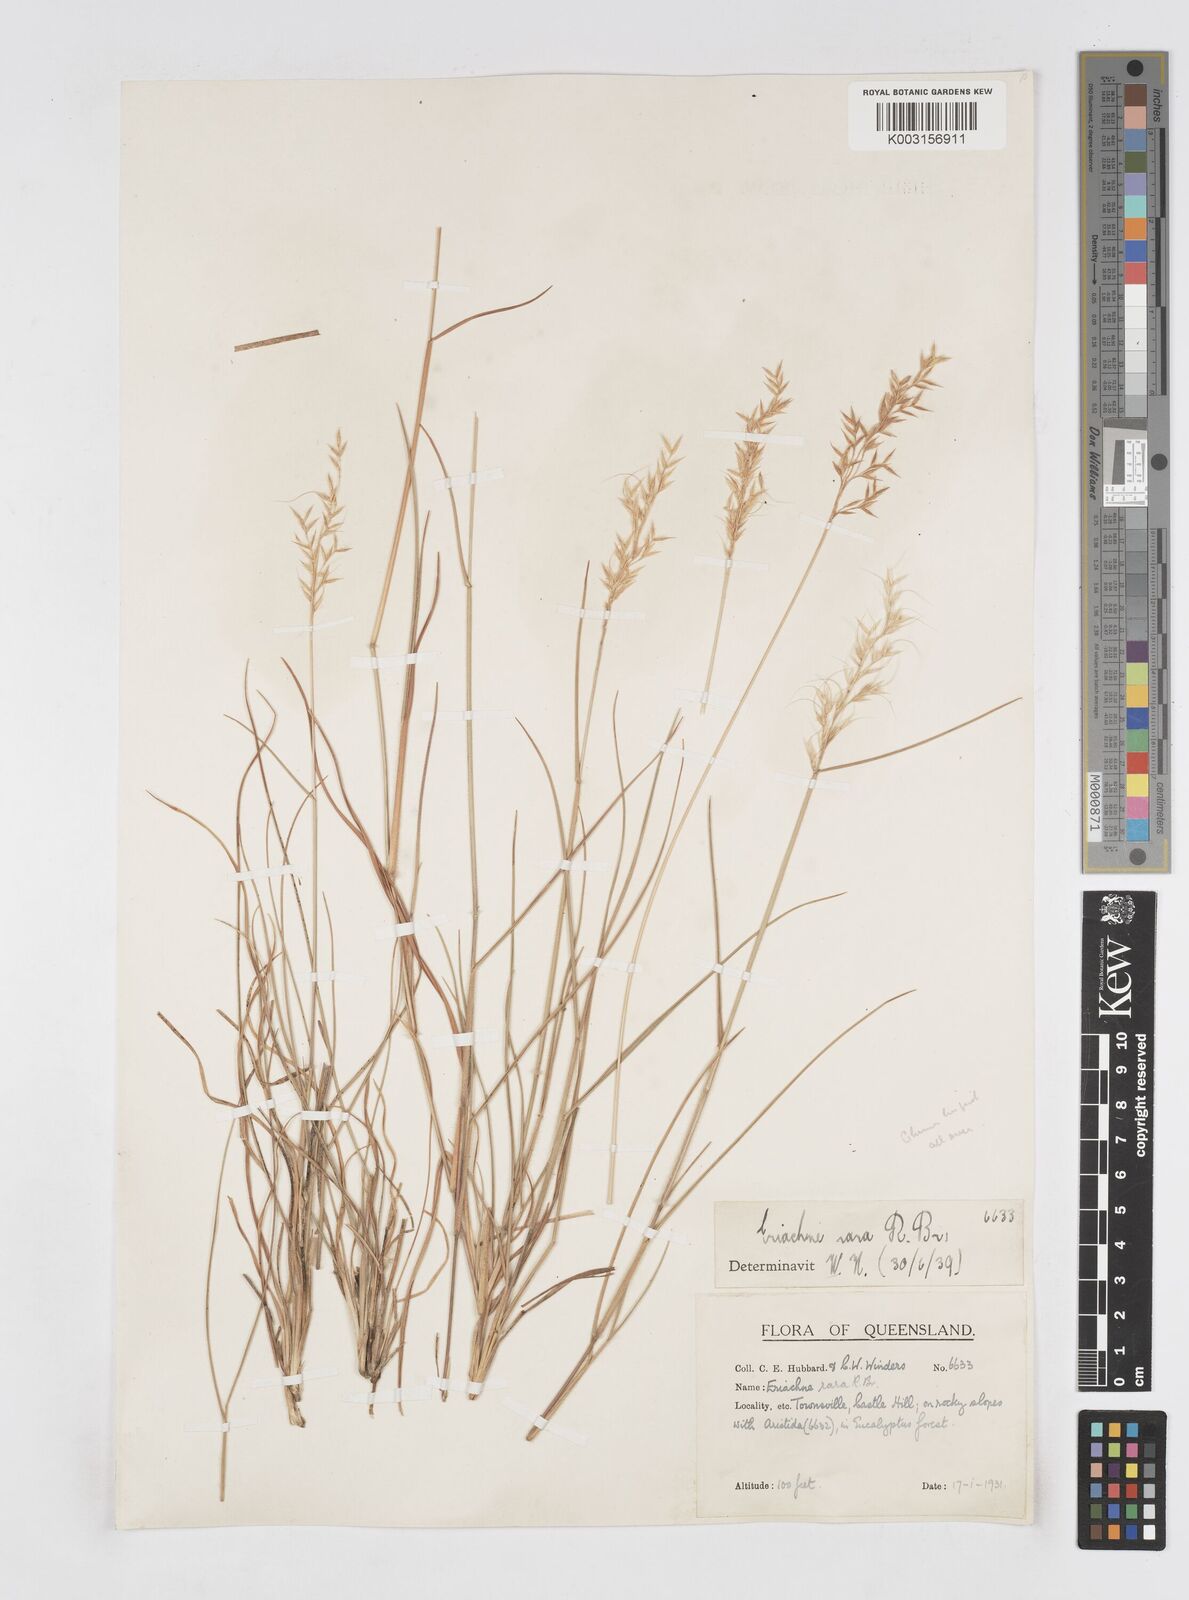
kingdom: Plantae
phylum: Tracheophyta
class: Liliopsida
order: Poales
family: Poaceae
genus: Eriachne
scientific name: Eriachne rara
